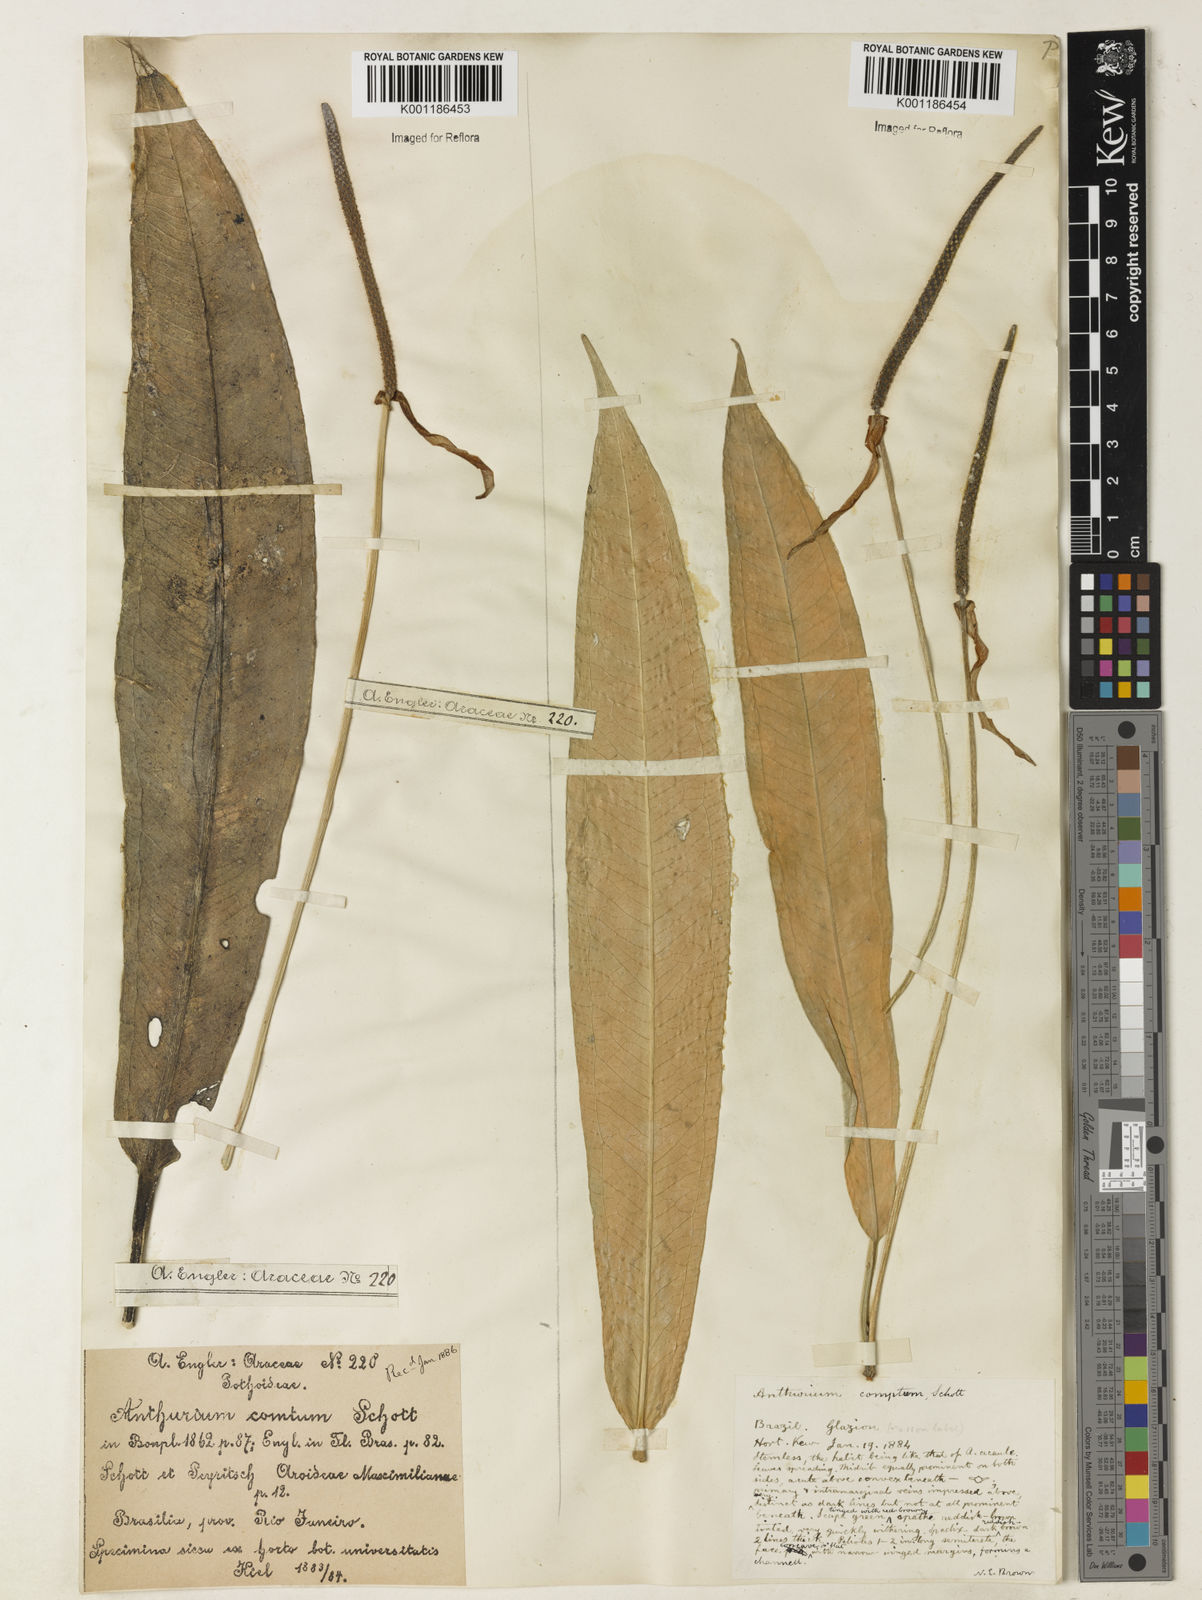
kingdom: Plantae
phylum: Tracheophyta
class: Liliopsida
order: Alismatales
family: Araceae
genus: Anthurium
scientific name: Anthurium comtum
